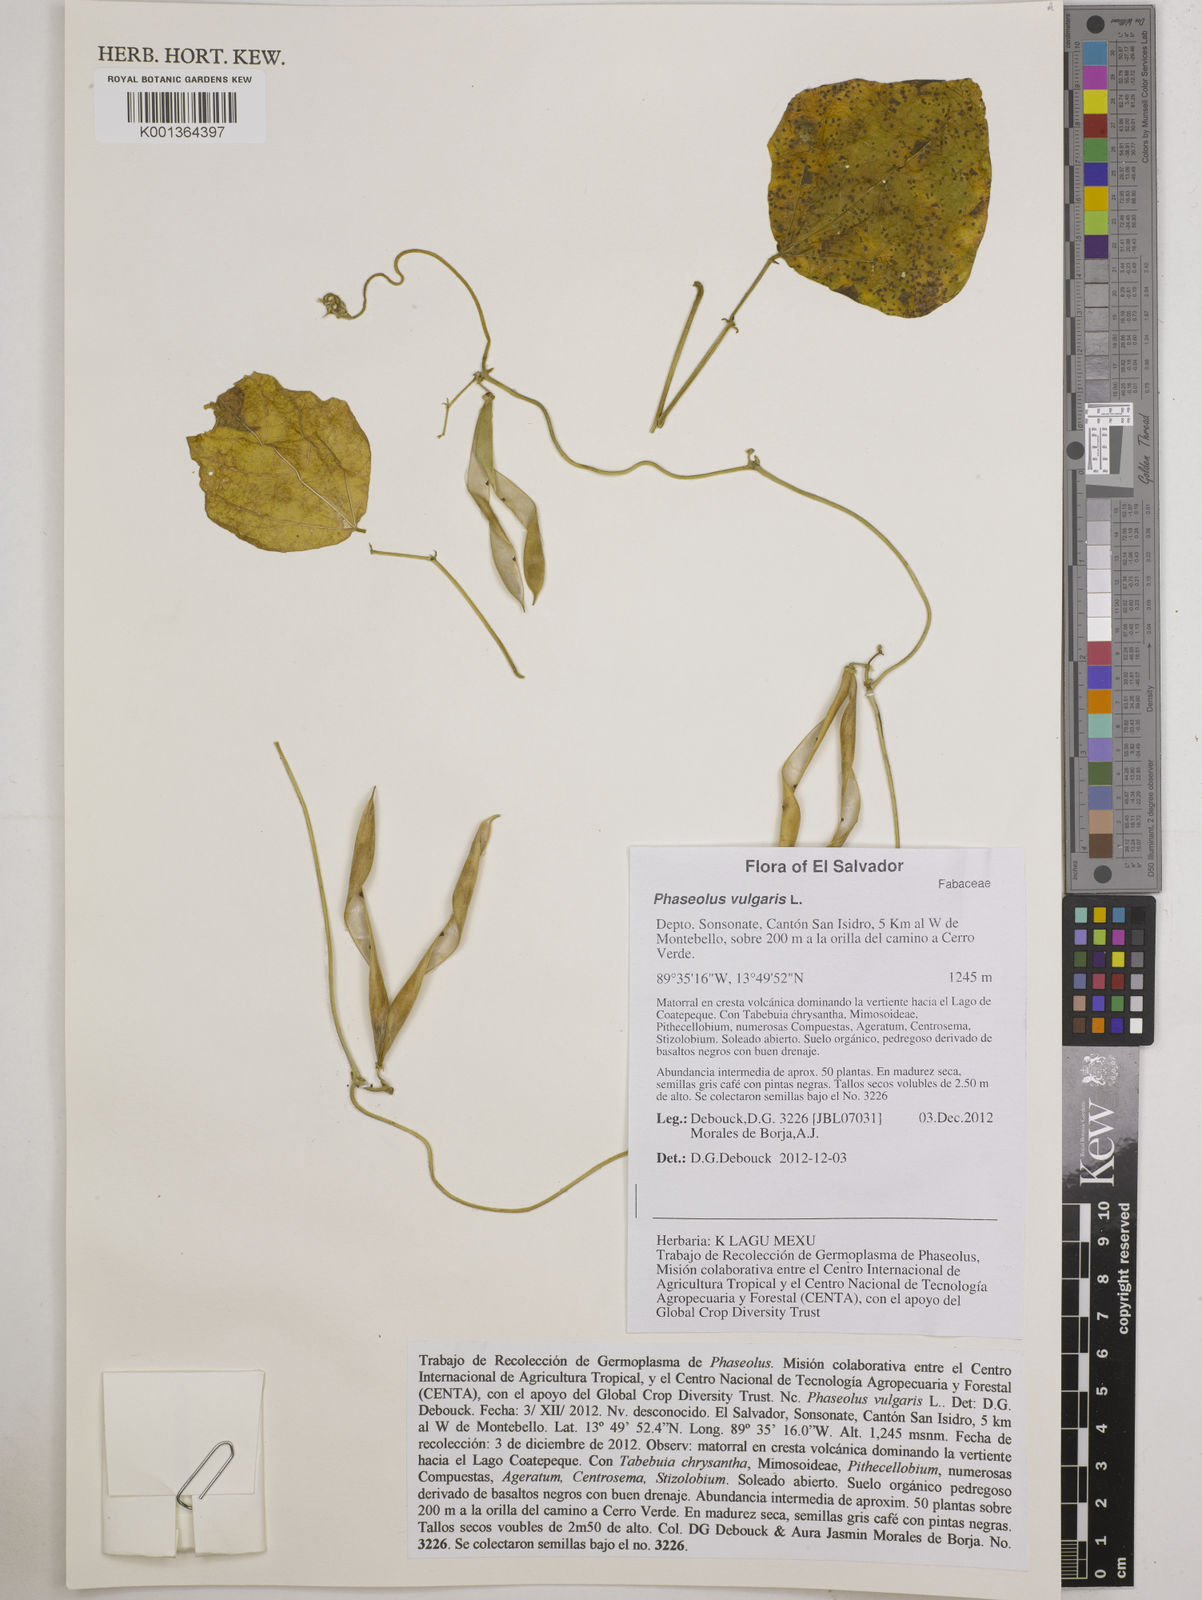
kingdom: Plantae
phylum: Tracheophyta
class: Magnoliopsida
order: Fabales
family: Fabaceae
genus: Phaseolus
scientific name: Phaseolus vulgaris
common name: Bean
